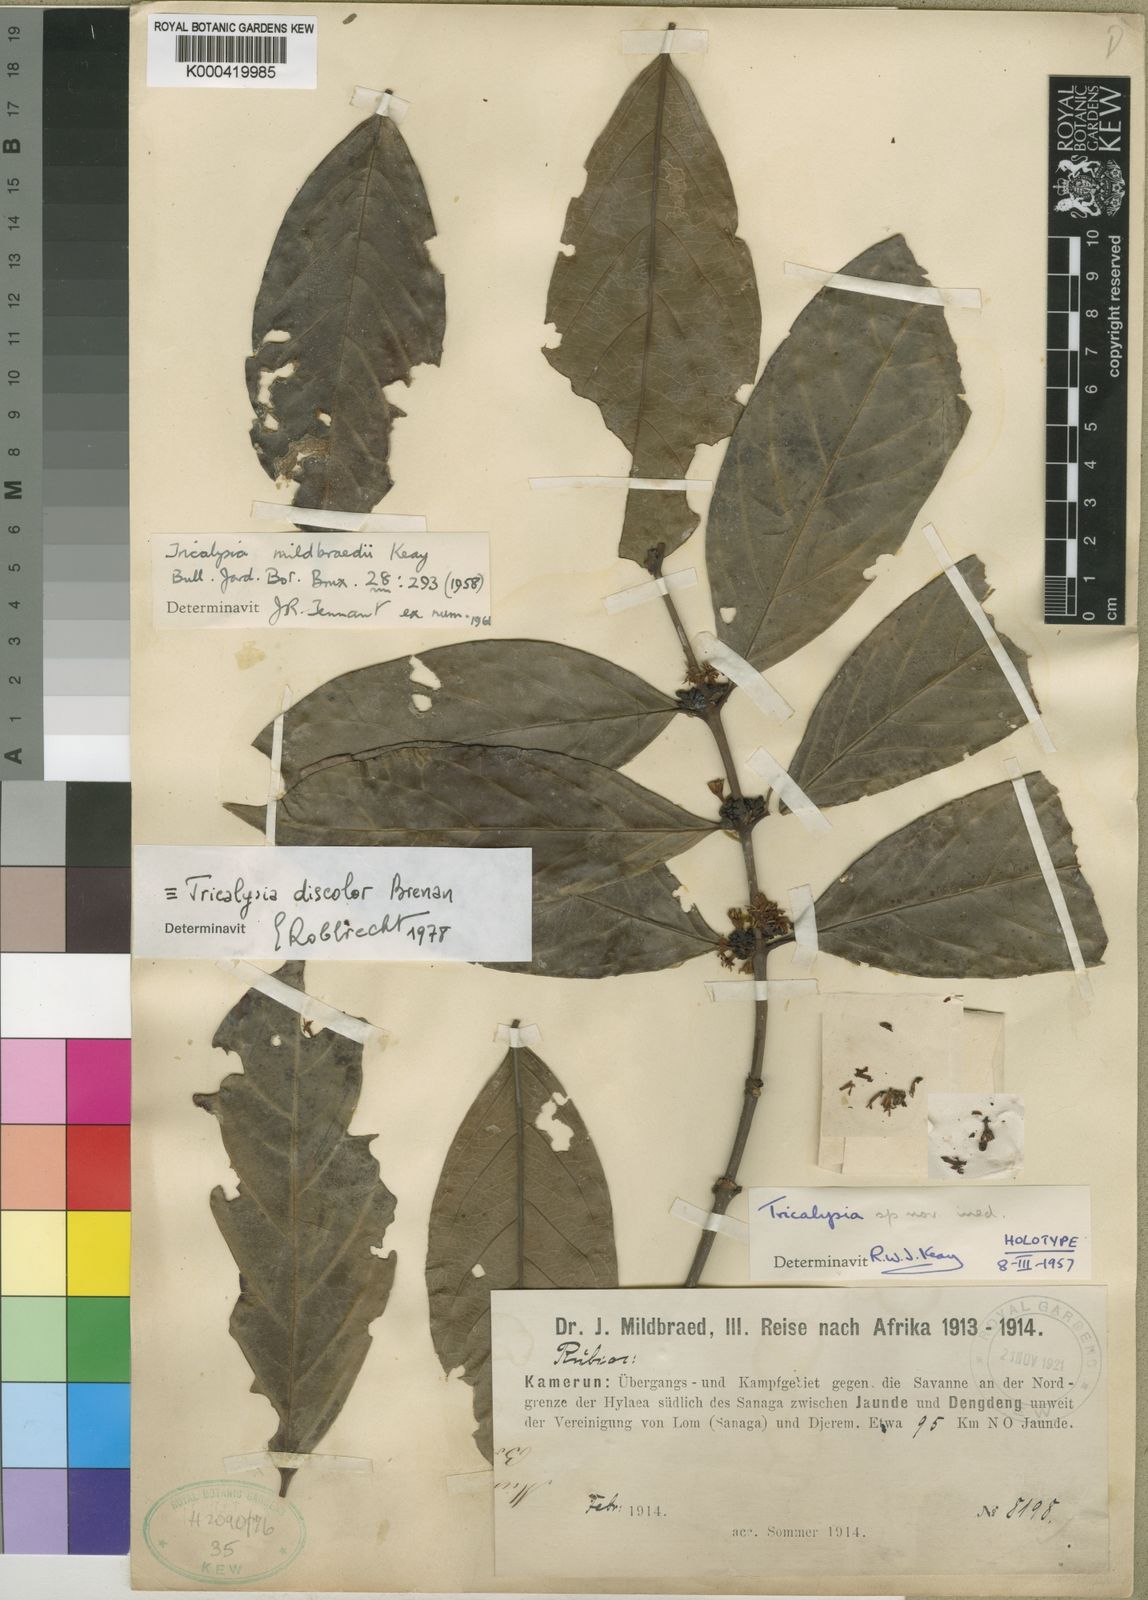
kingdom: Plantae
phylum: Tracheophyta
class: Magnoliopsida
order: Gentianales
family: Rubiaceae
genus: Empogona
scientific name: Empogona discolor
